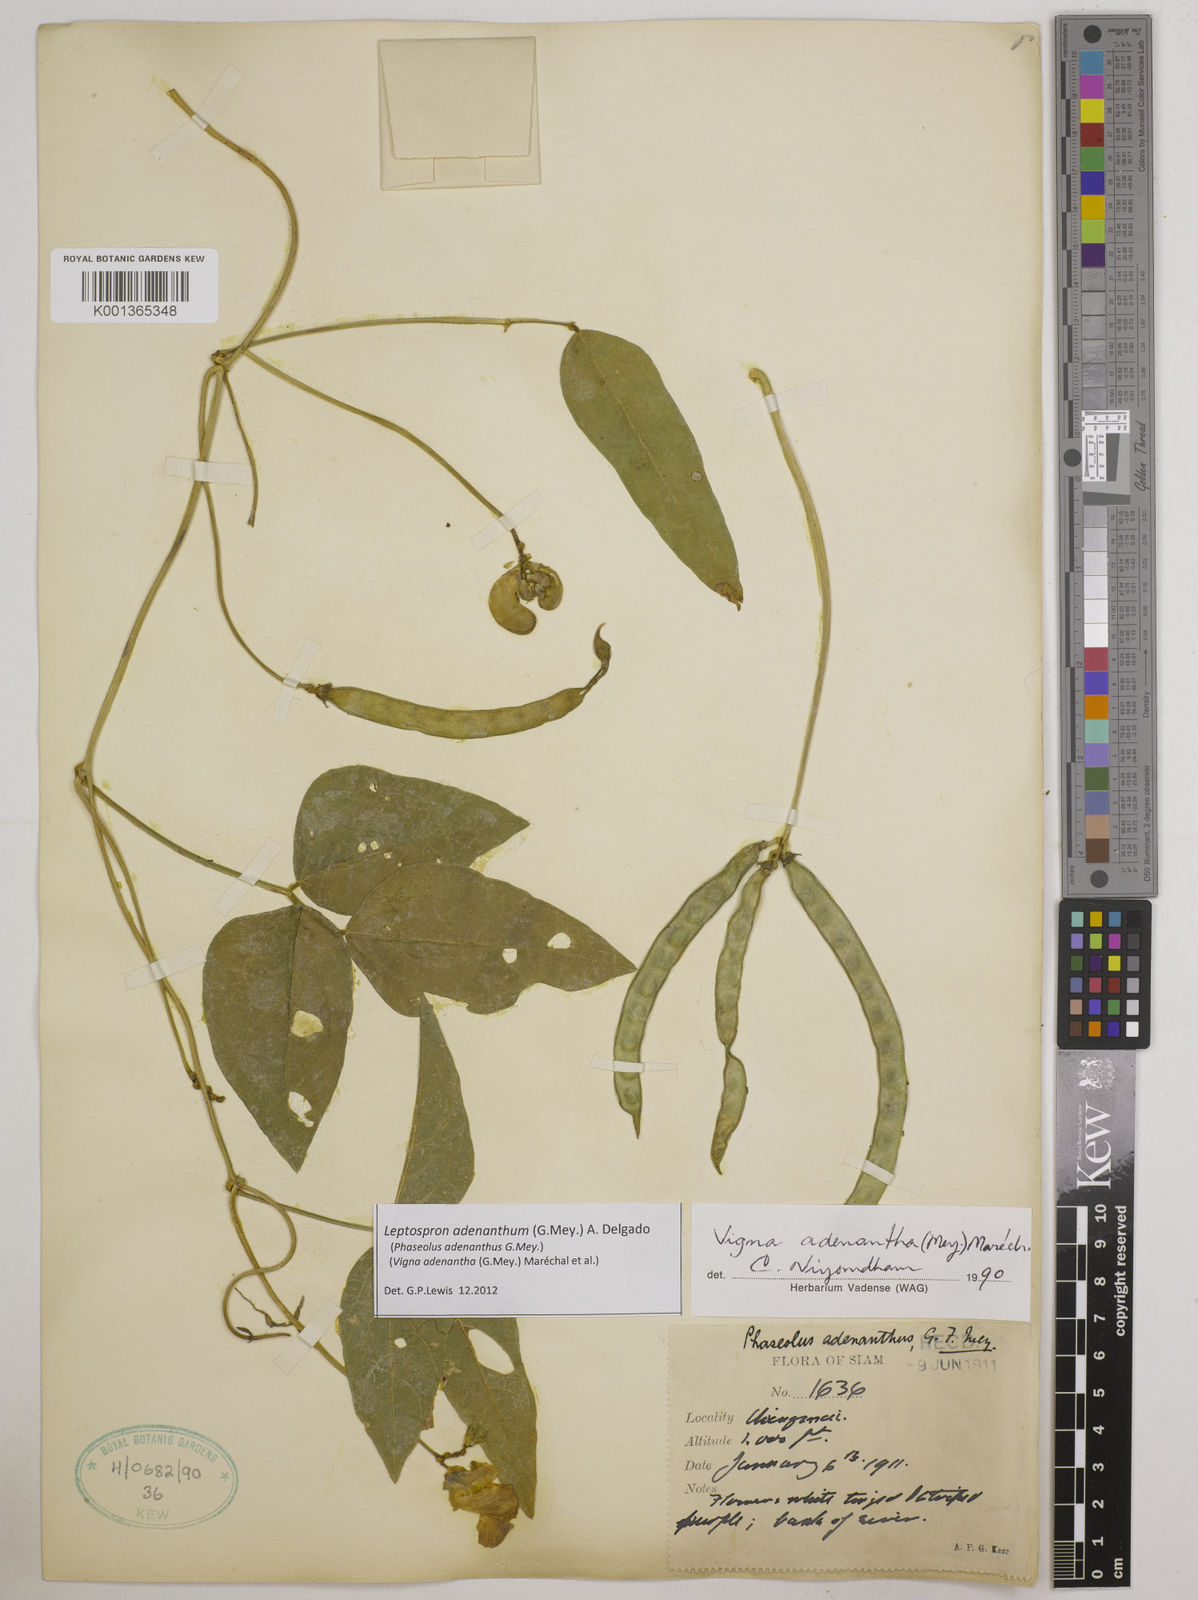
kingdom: Plantae
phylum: Tracheophyta
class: Magnoliopsida
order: Fabales
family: Fabaceae
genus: Leptospron
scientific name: Leptospron adenanthum
